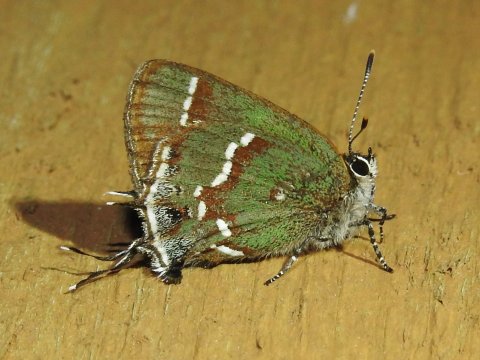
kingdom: Animalia
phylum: Arthropoda
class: Insecta
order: Lepidoptera
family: Lycaenidae
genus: Mitoura
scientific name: Mitoura gryneus
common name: Juniper Hairstreak
